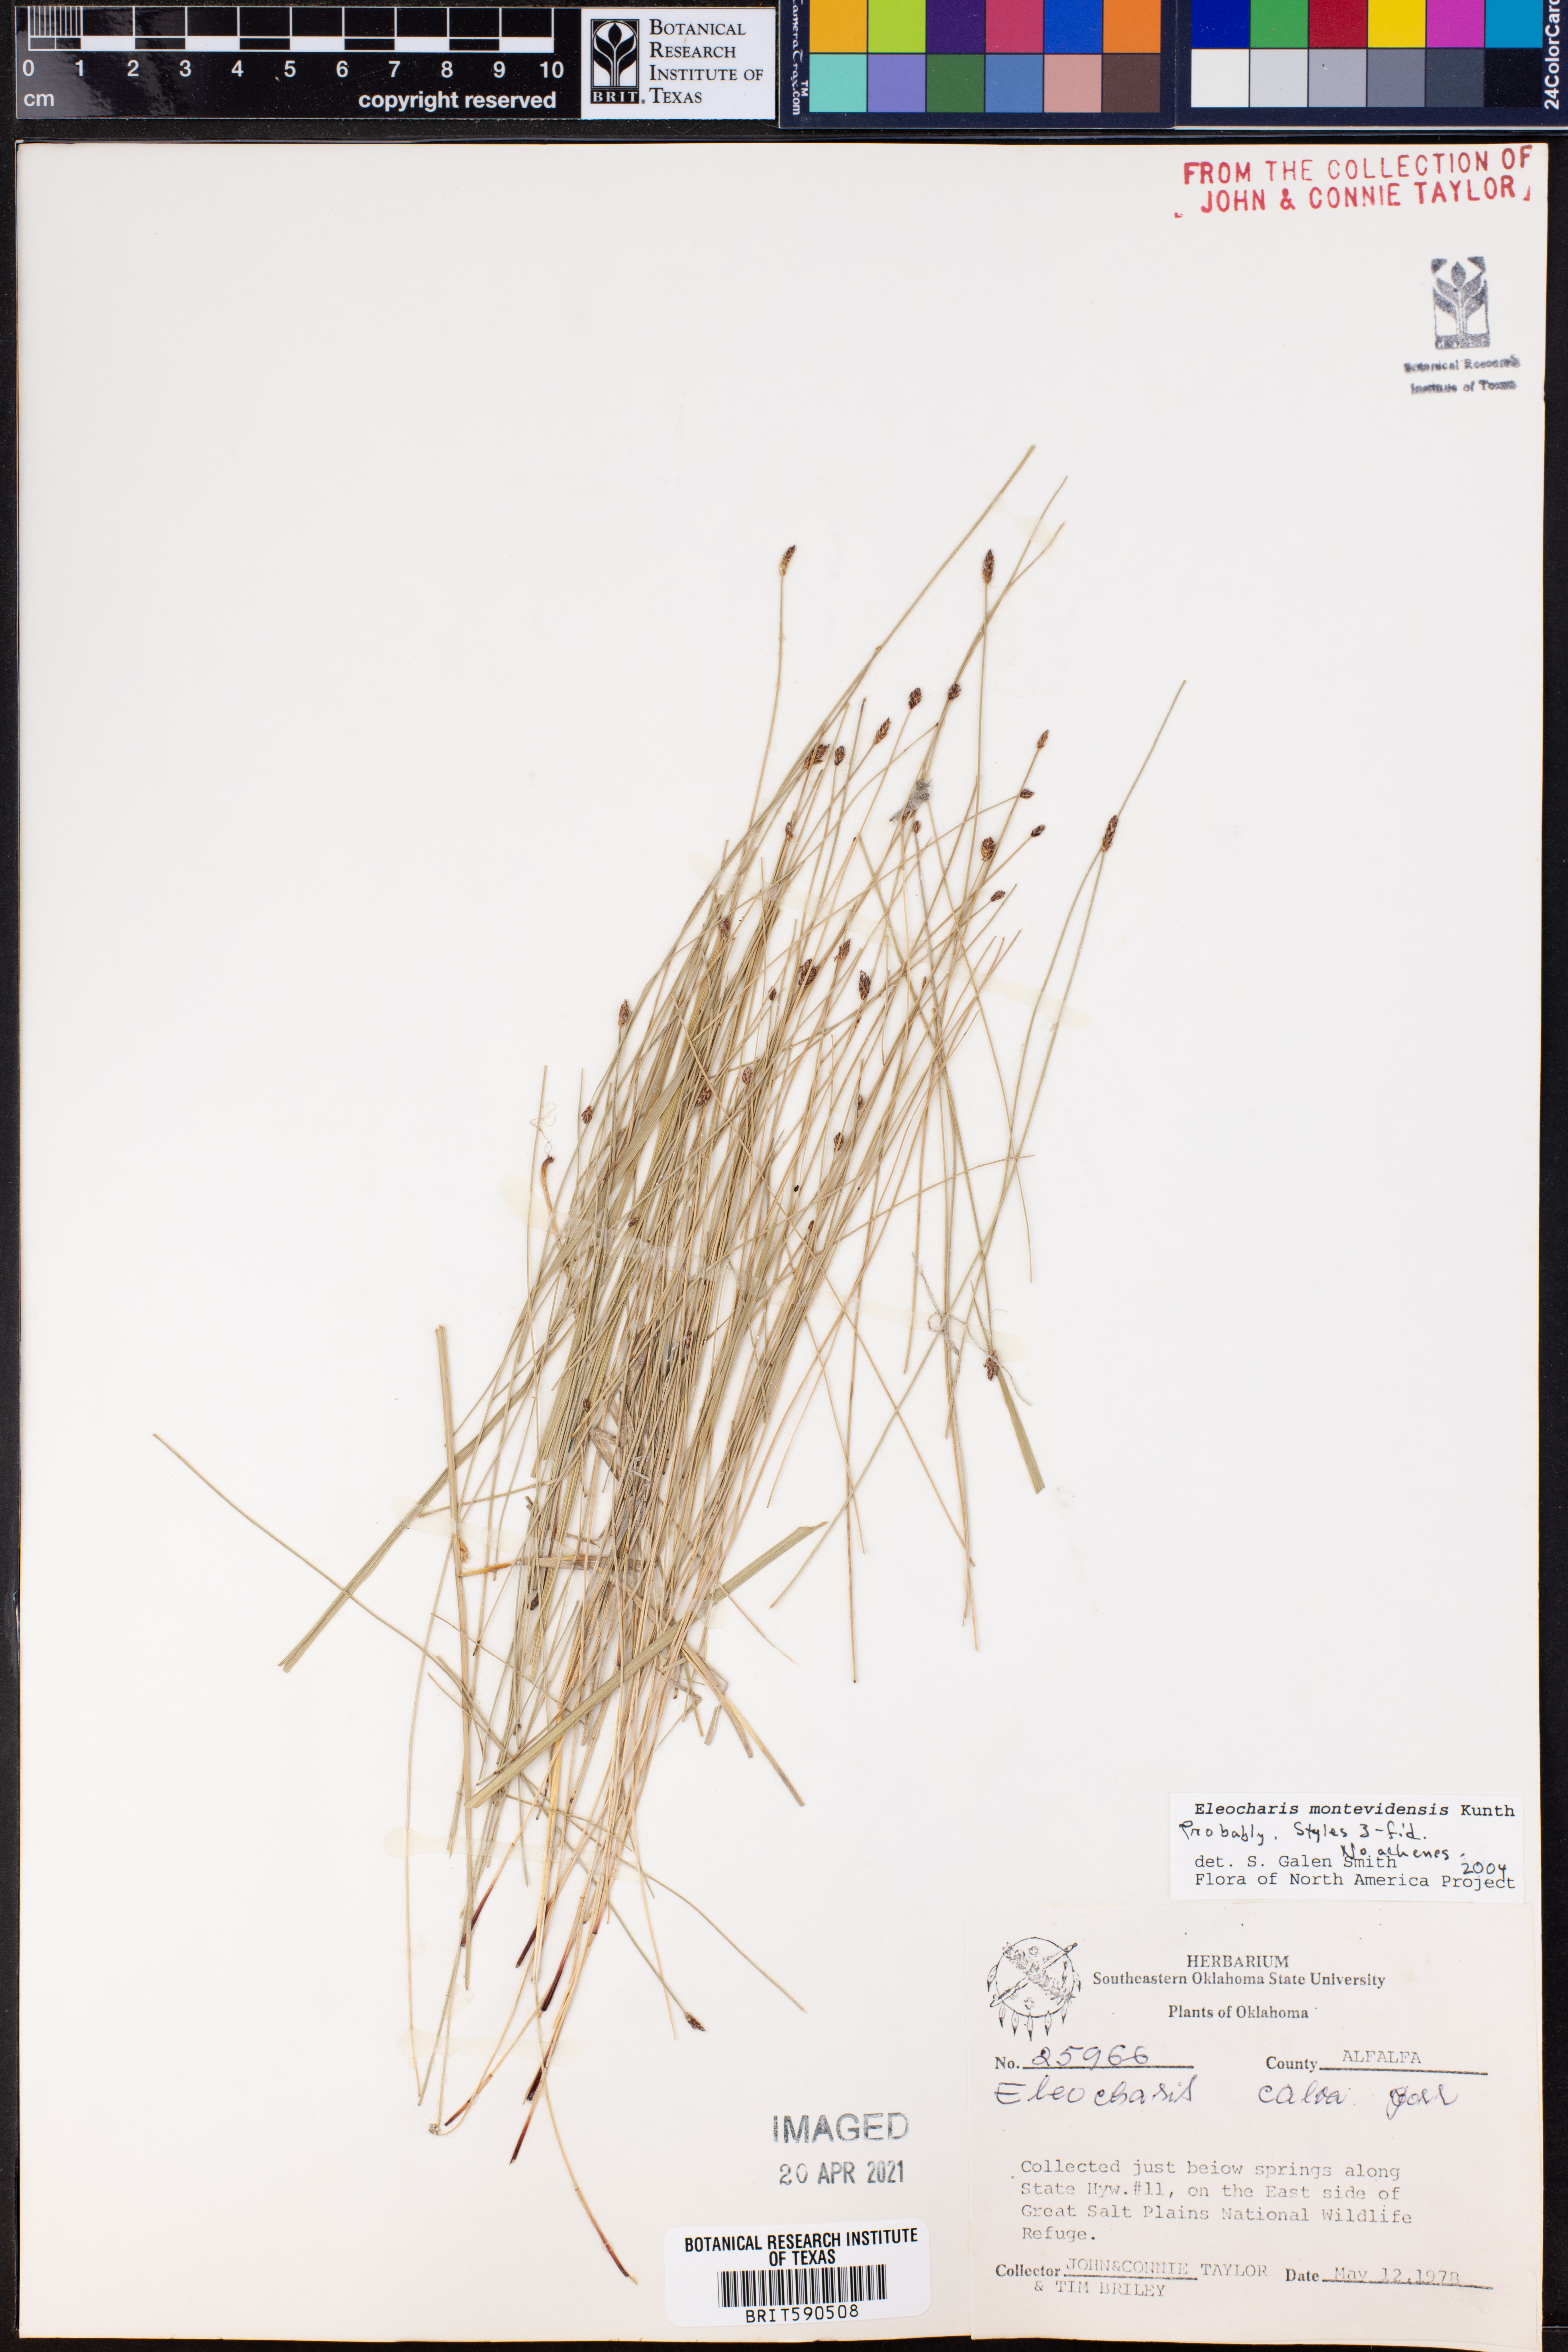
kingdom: Plantae
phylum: Tracheophyta
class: Liliopsida
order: Poales
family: Cyperaceae
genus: Eleocharis
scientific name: Eleocharis montevidensis
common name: Sand spike-rush
